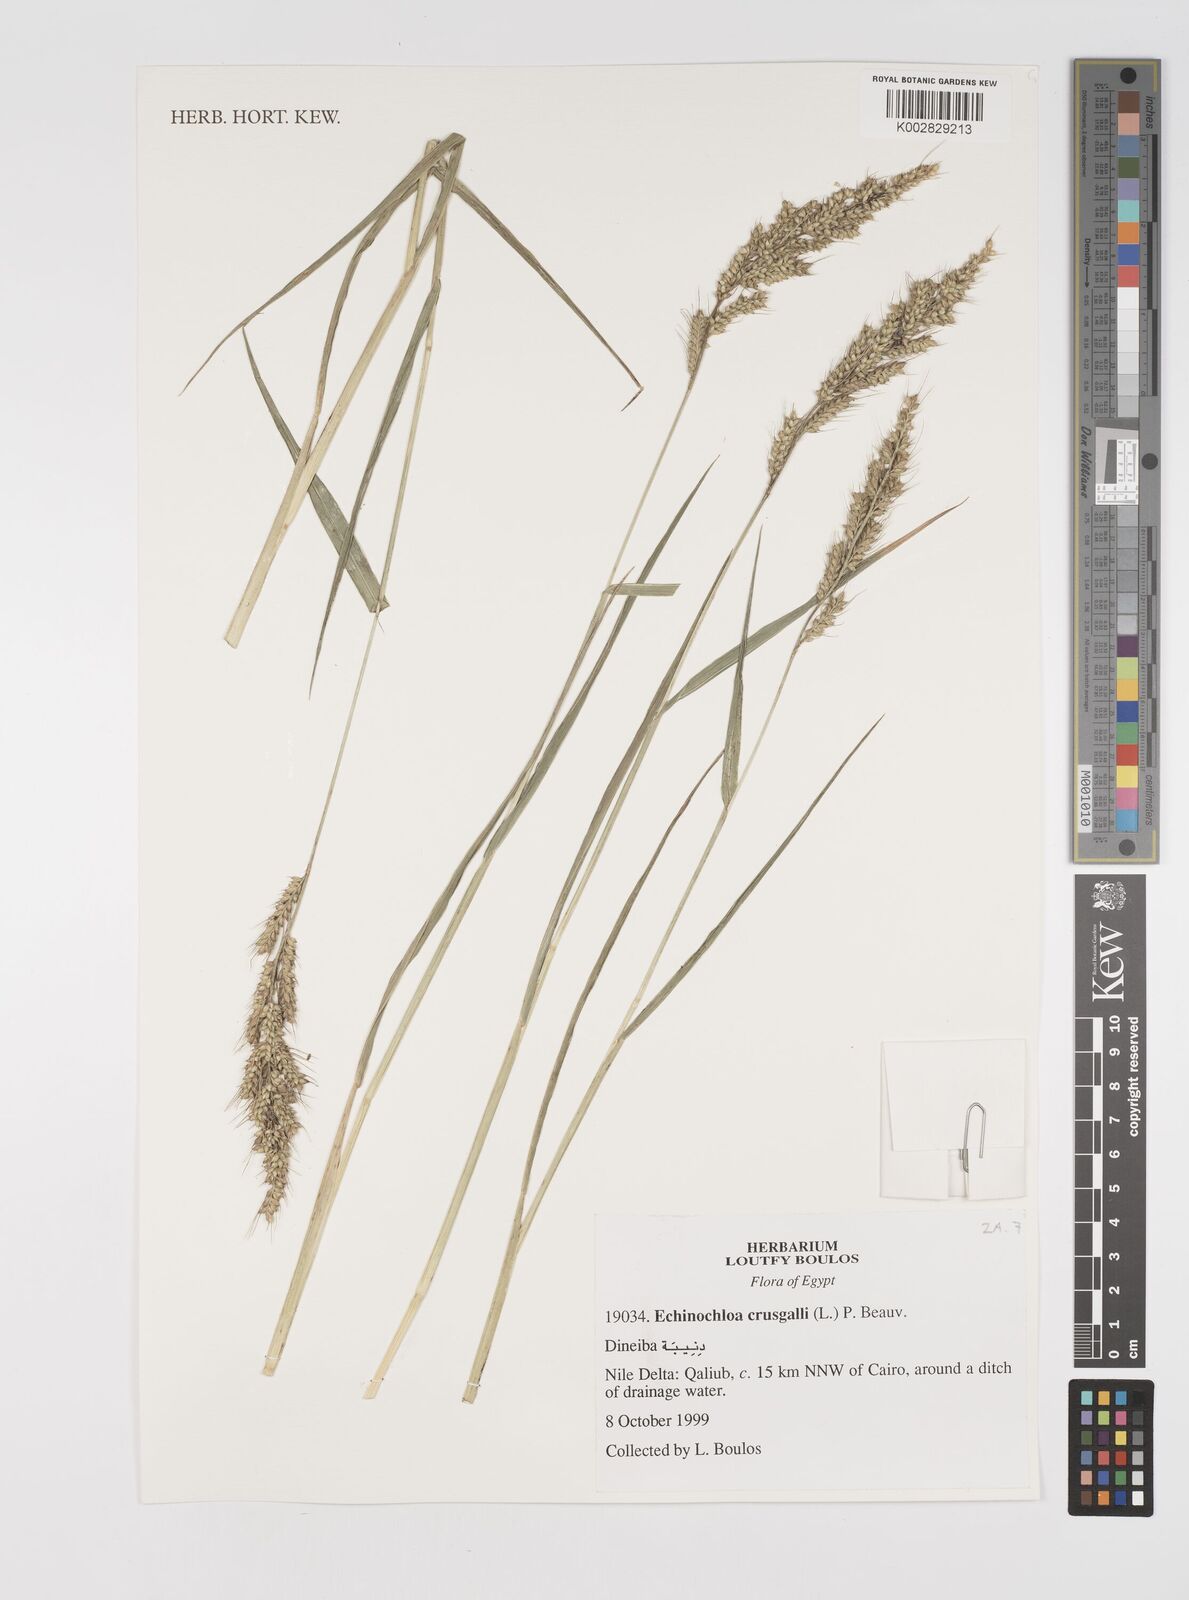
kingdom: Plantae
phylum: Tracheophyta
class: Liliopsida
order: Poales
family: Poaceae
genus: Echinochloa
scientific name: Echinochloa crus-galli
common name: Cockspur
